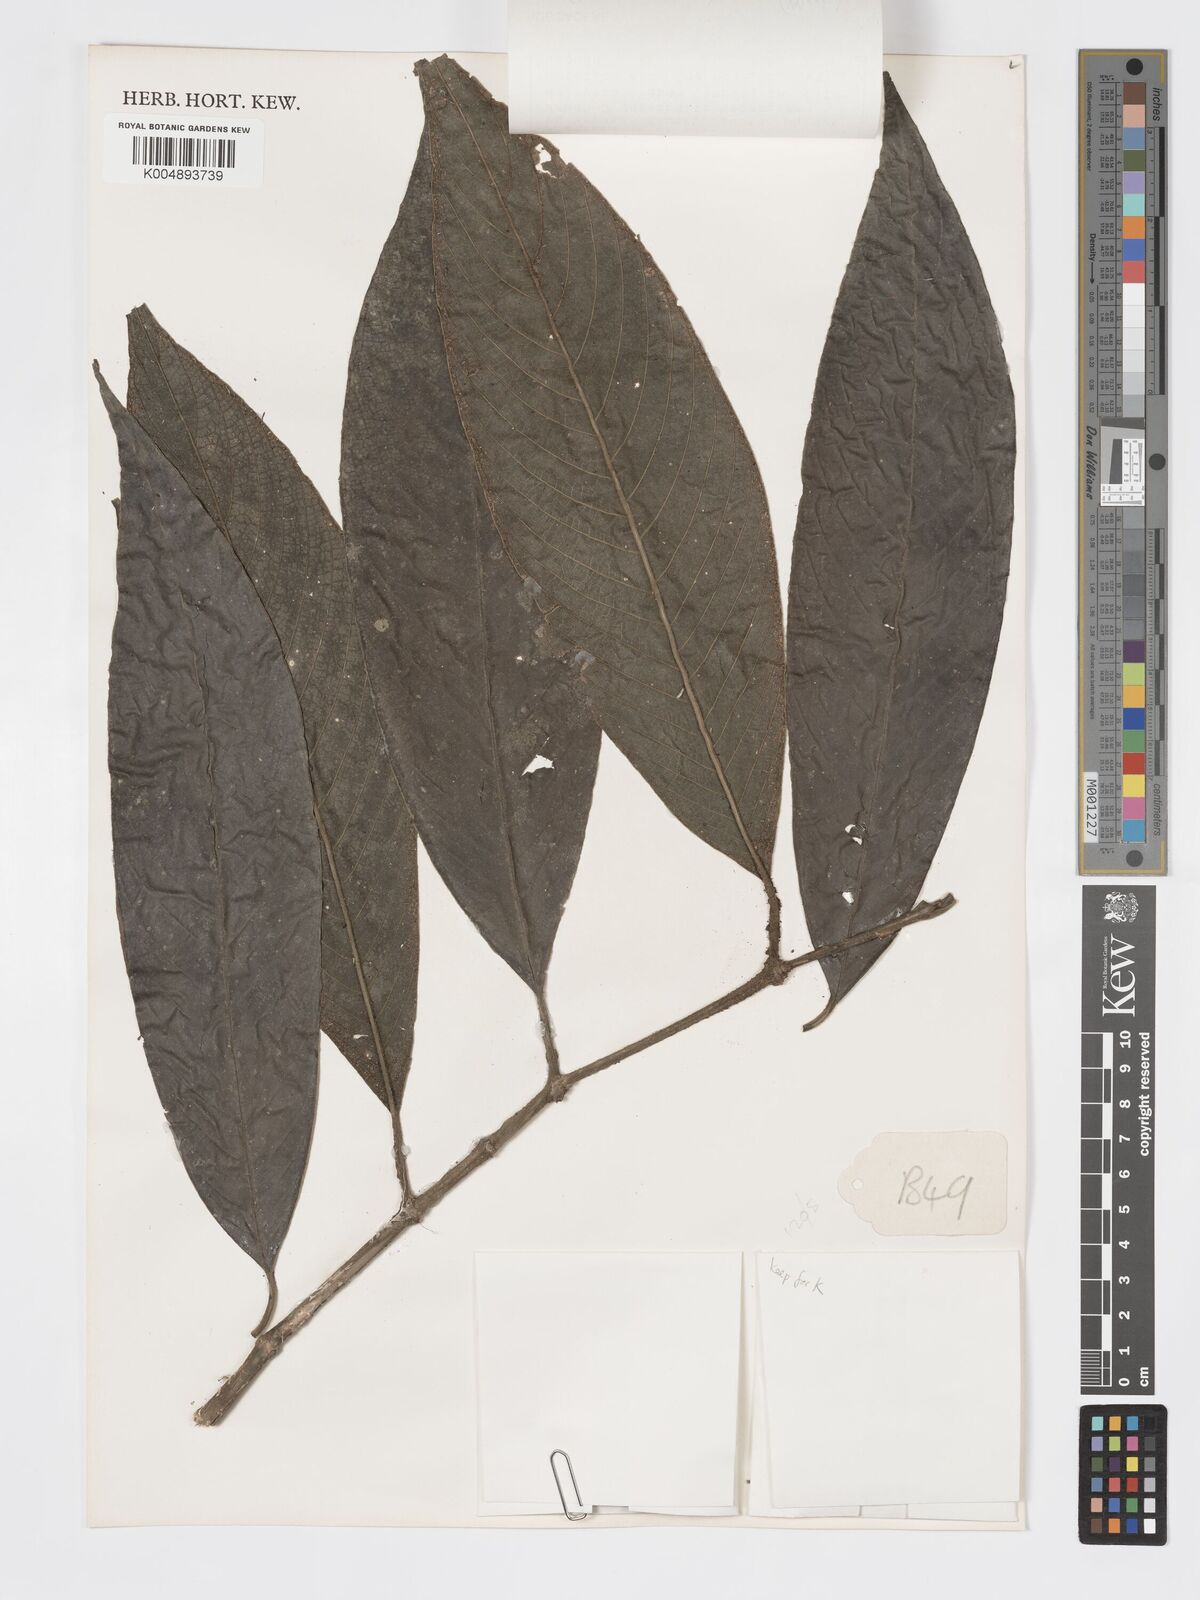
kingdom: Plantae
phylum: Tracheophyta
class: Magnoliopsida
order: Gentianales
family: Rubiaceae
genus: Praravinia
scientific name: Praravinia suberosa
